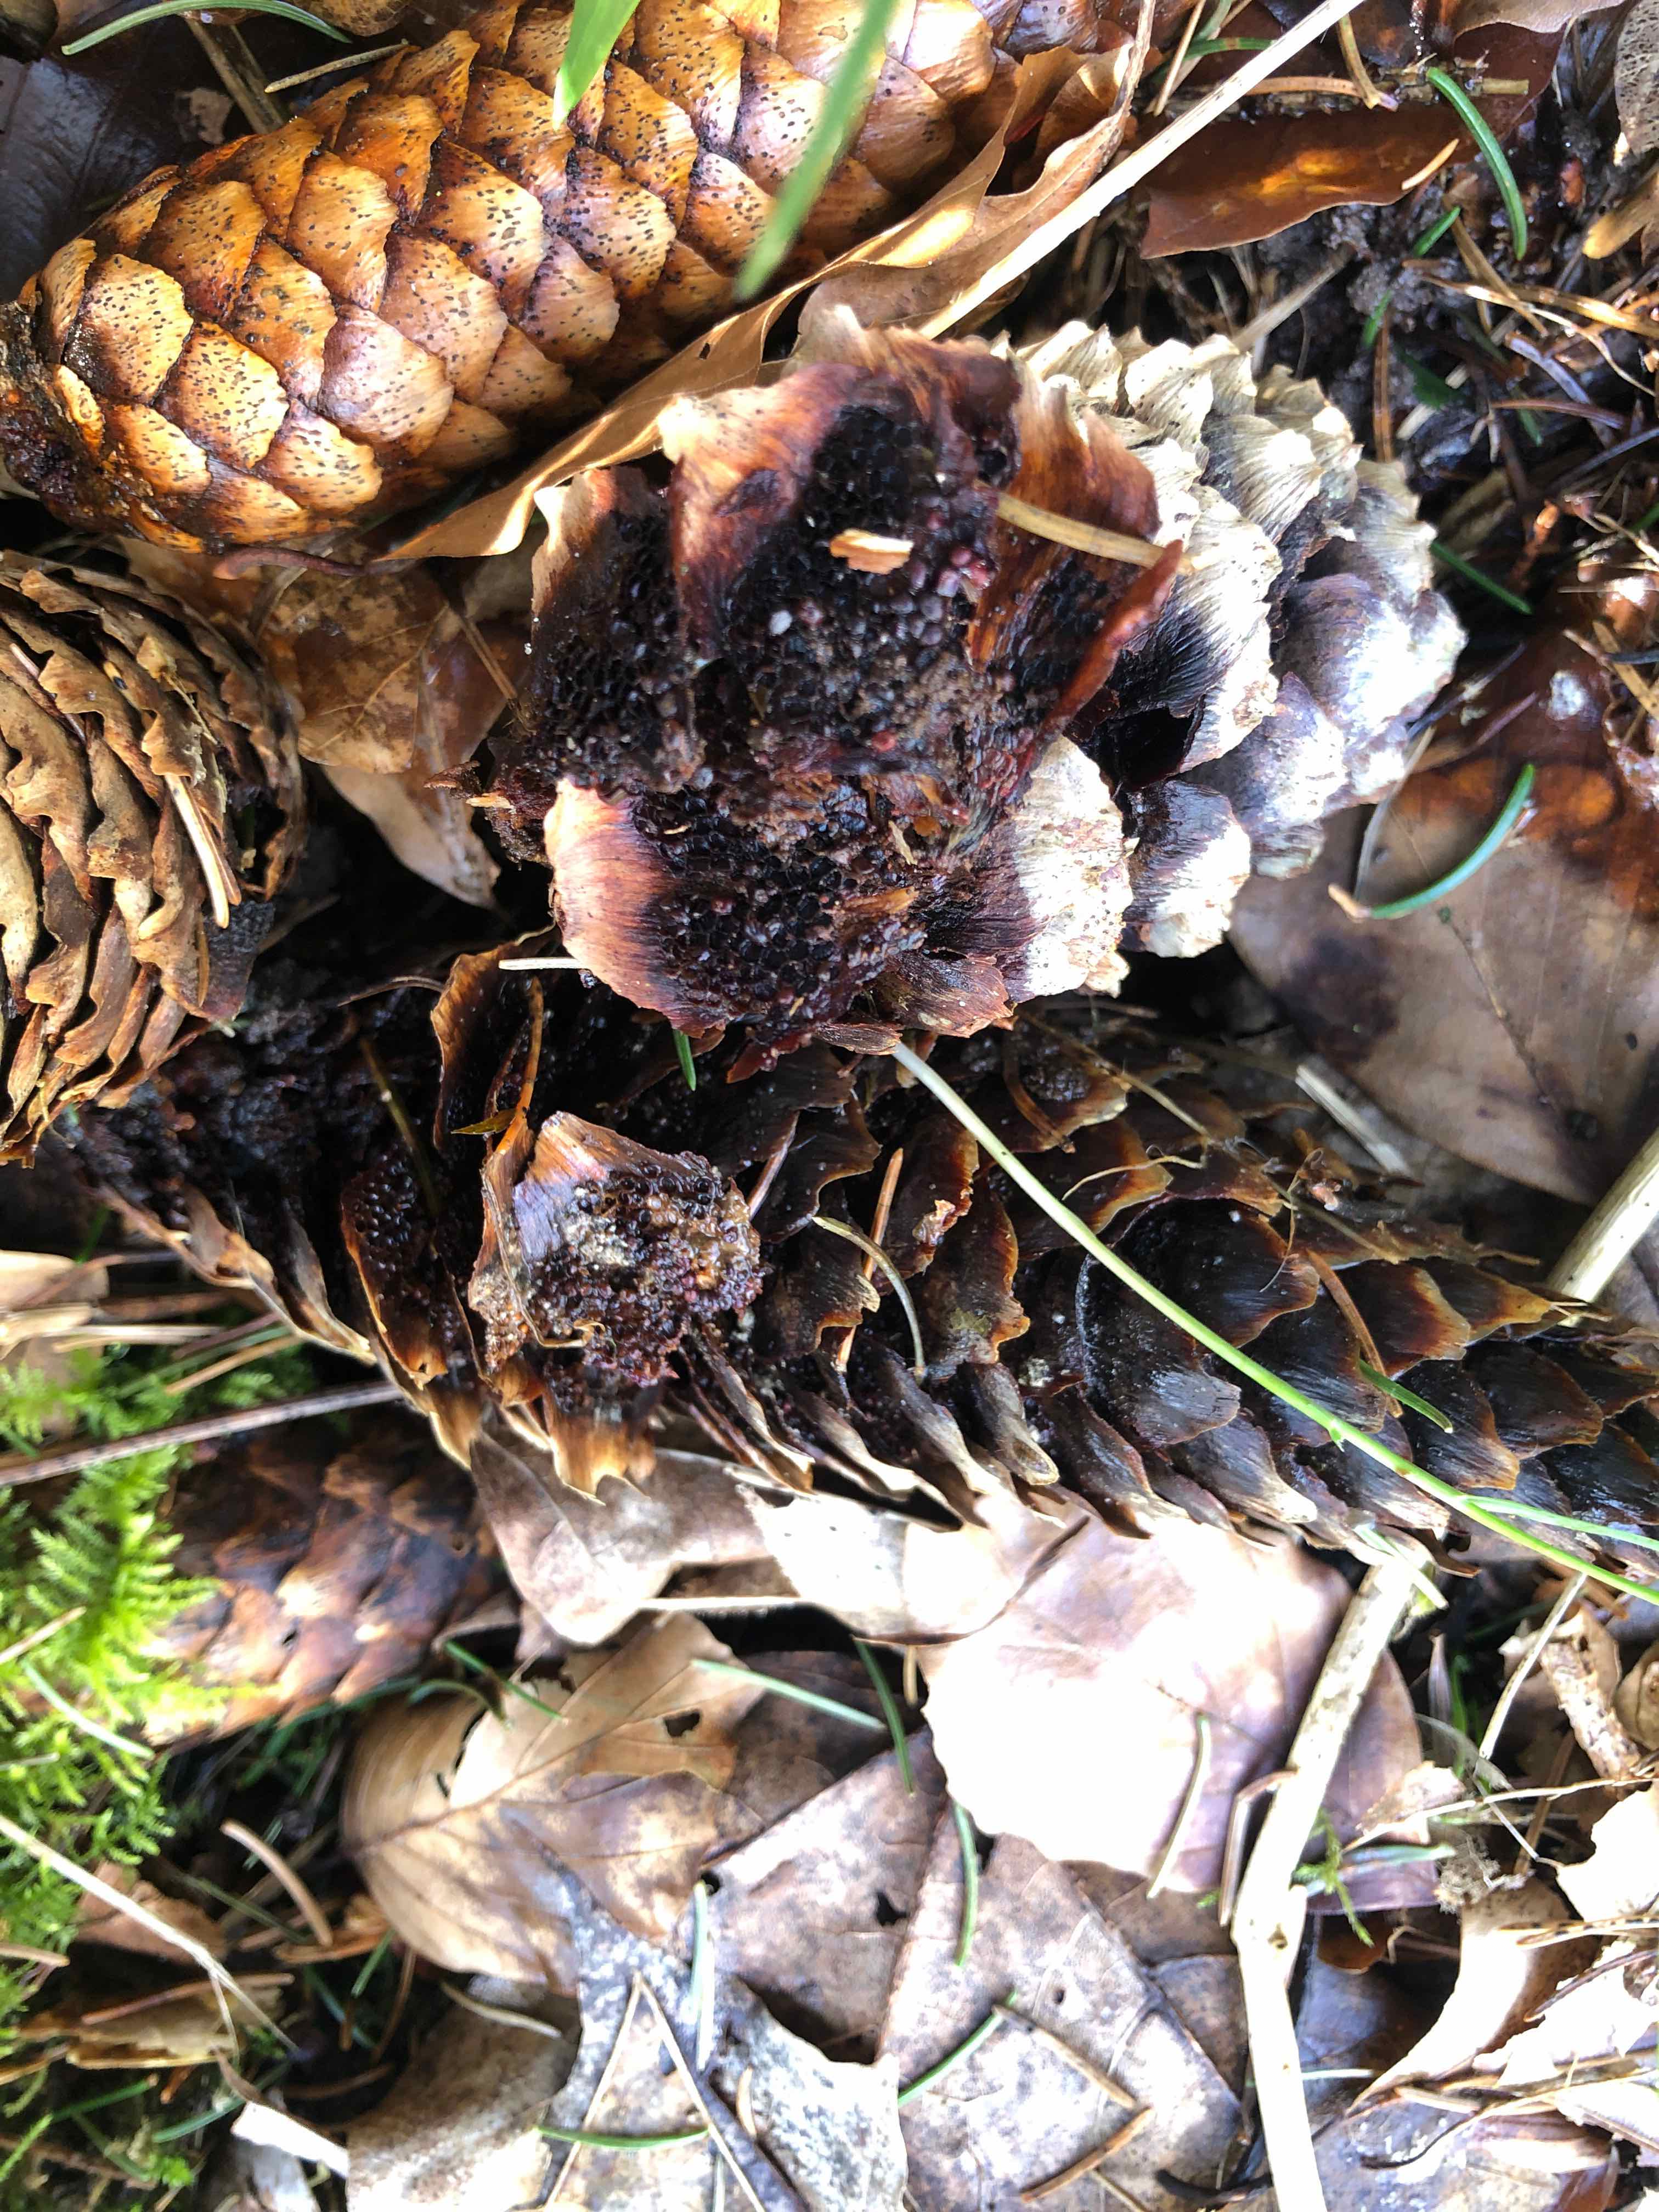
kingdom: Fungi
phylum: Basidiomycota
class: Pucciniomycetes
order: Pucciniales
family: Pucciniastraceae
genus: Thekopsora
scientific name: Thekopsora areolata
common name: grankogle-nålerust
